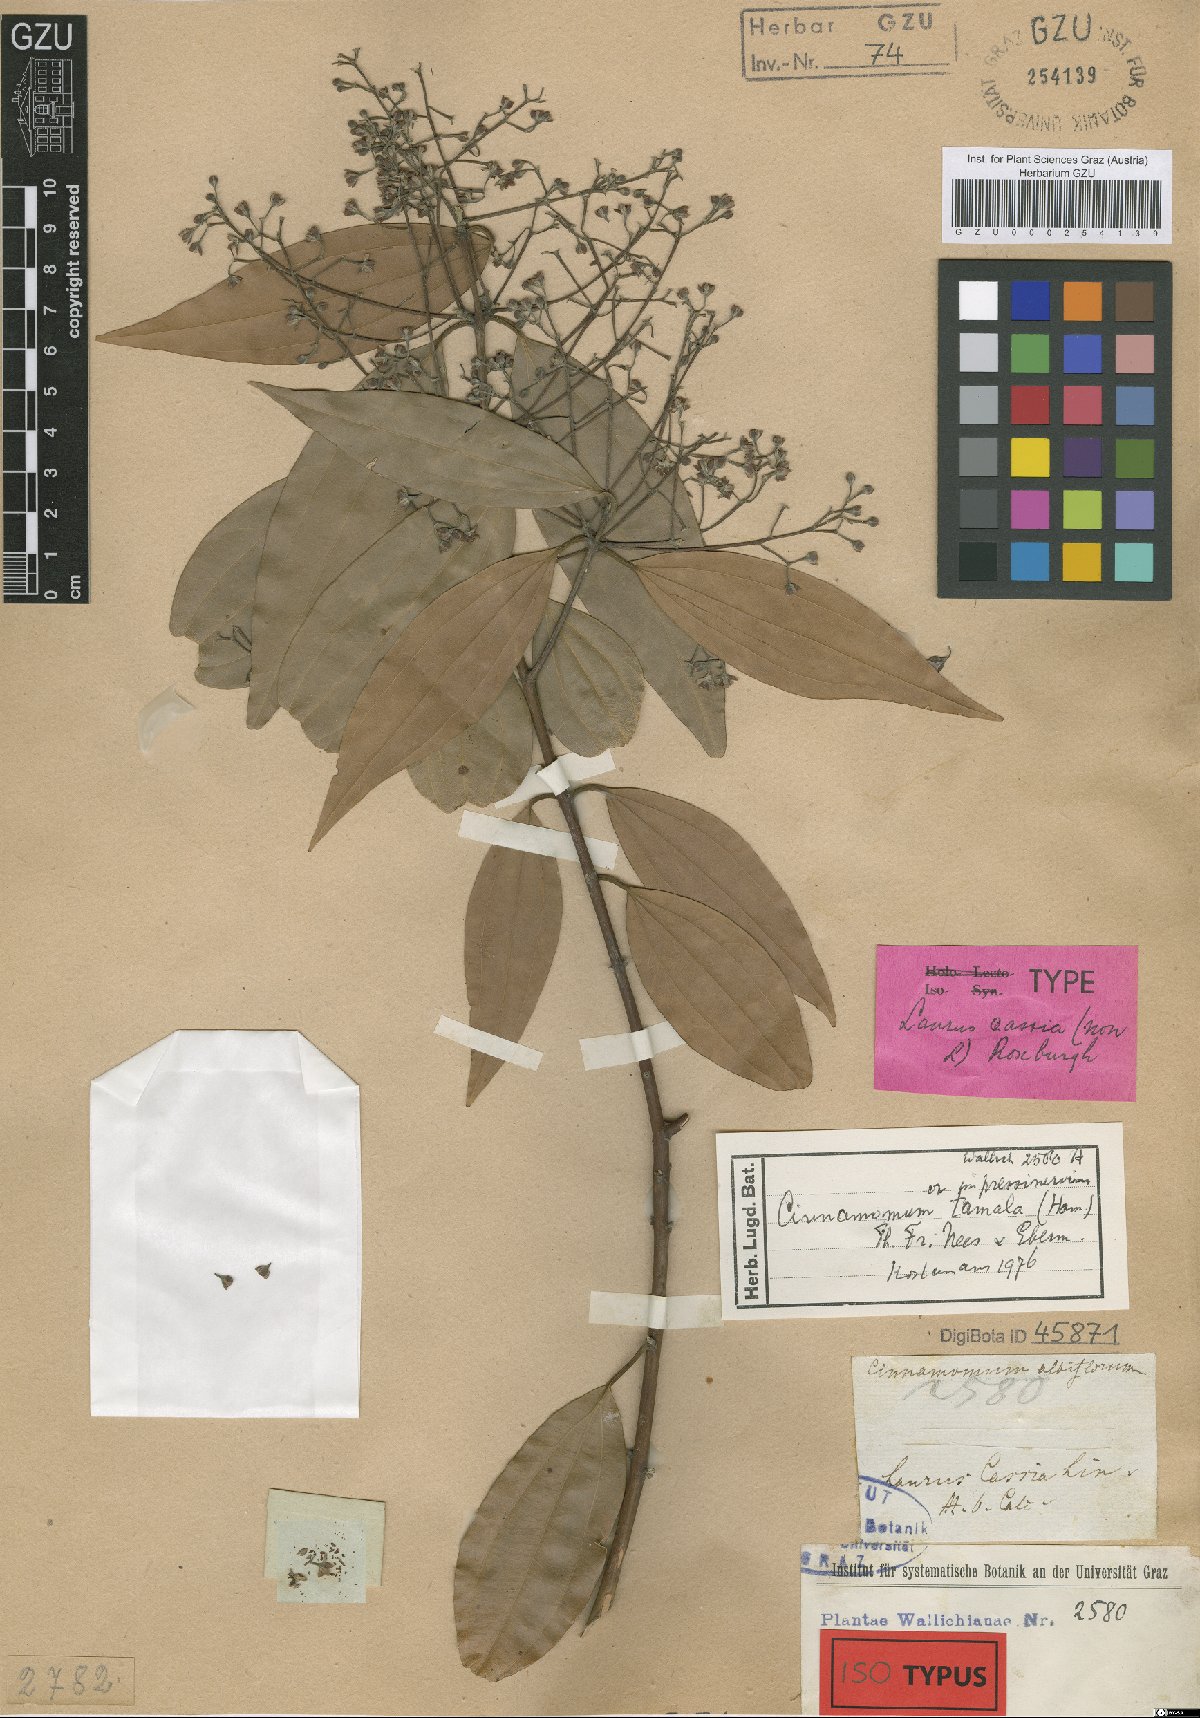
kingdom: Plantae
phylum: Tracheophyta
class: Magnoliopsida
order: Laurales
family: Lauraceae
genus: Cinnamomum
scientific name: Cinnamomum tamala
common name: Indian bay leaves
